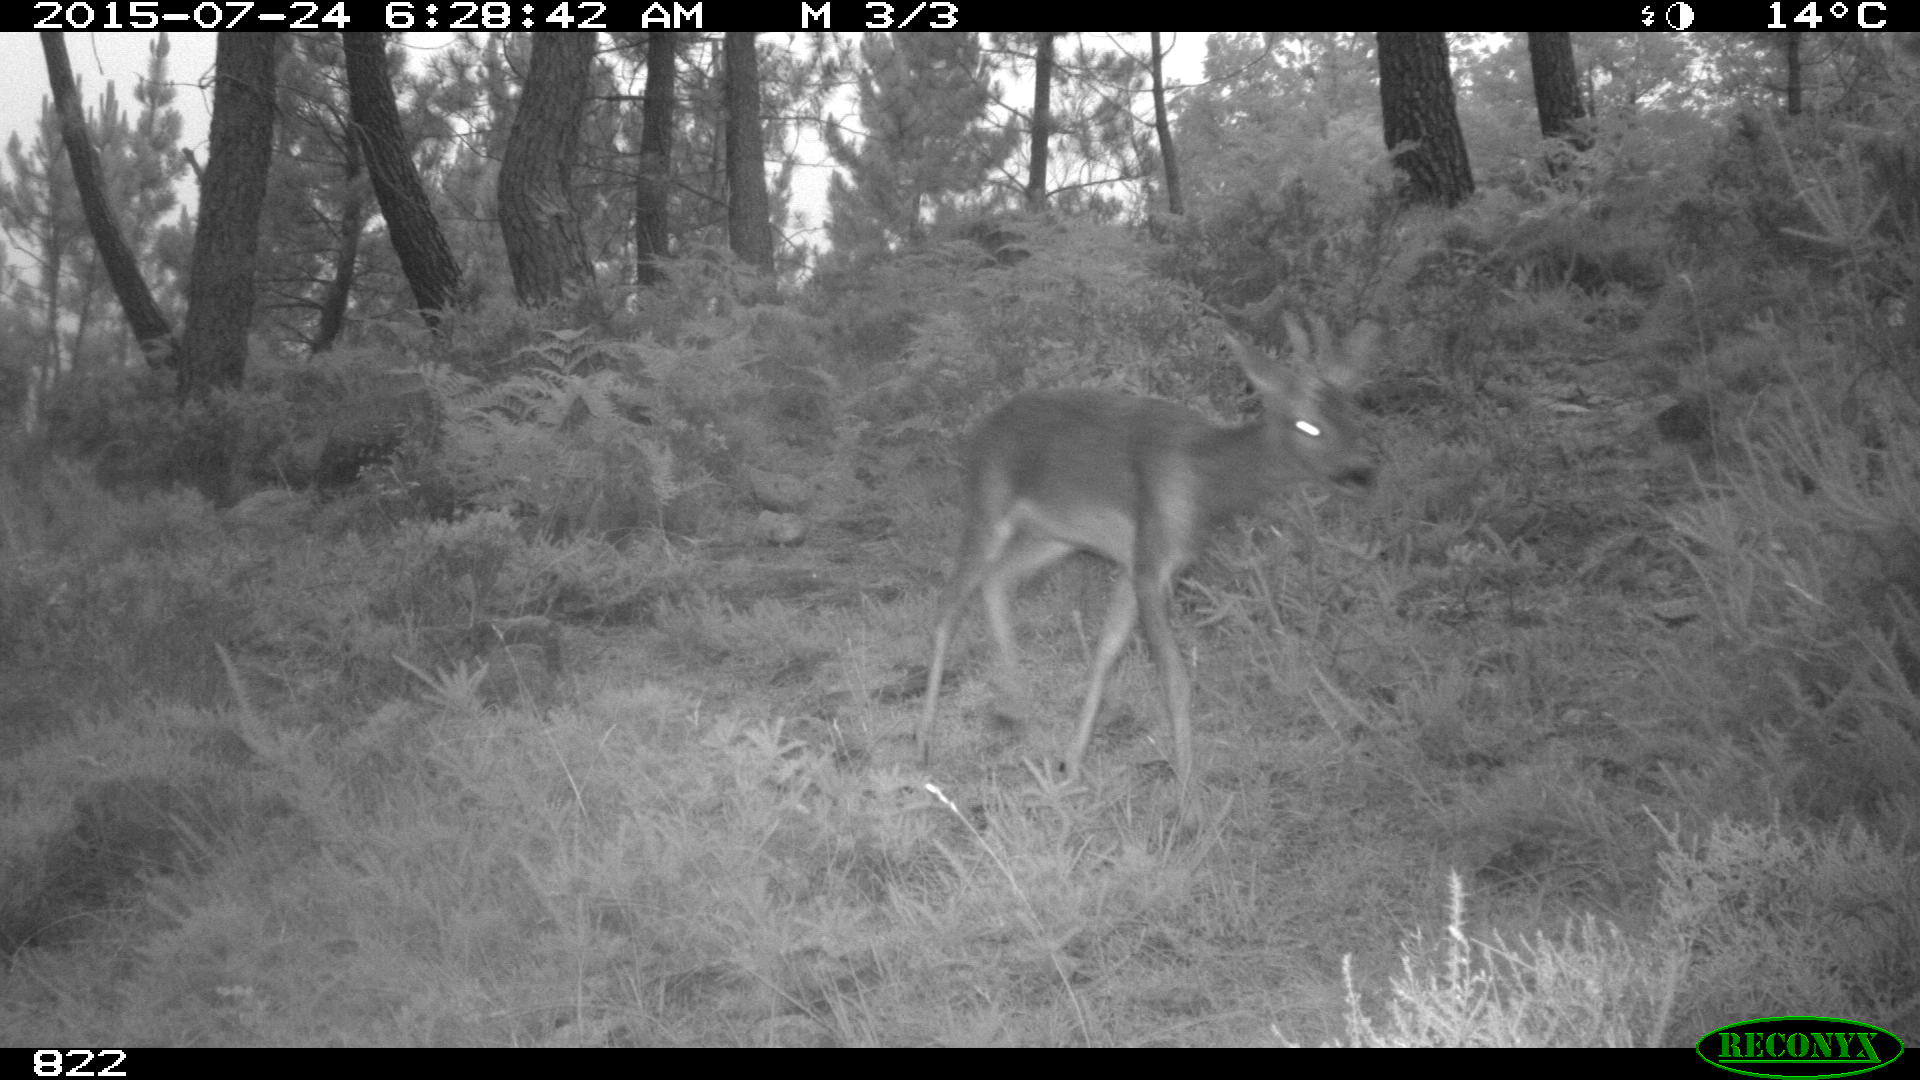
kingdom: Animalia
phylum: Chordata
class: Mammalia
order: Artiodactyla
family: Cervidae
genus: Capreolus
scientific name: Capreolus capreolus
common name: Western roe deer
